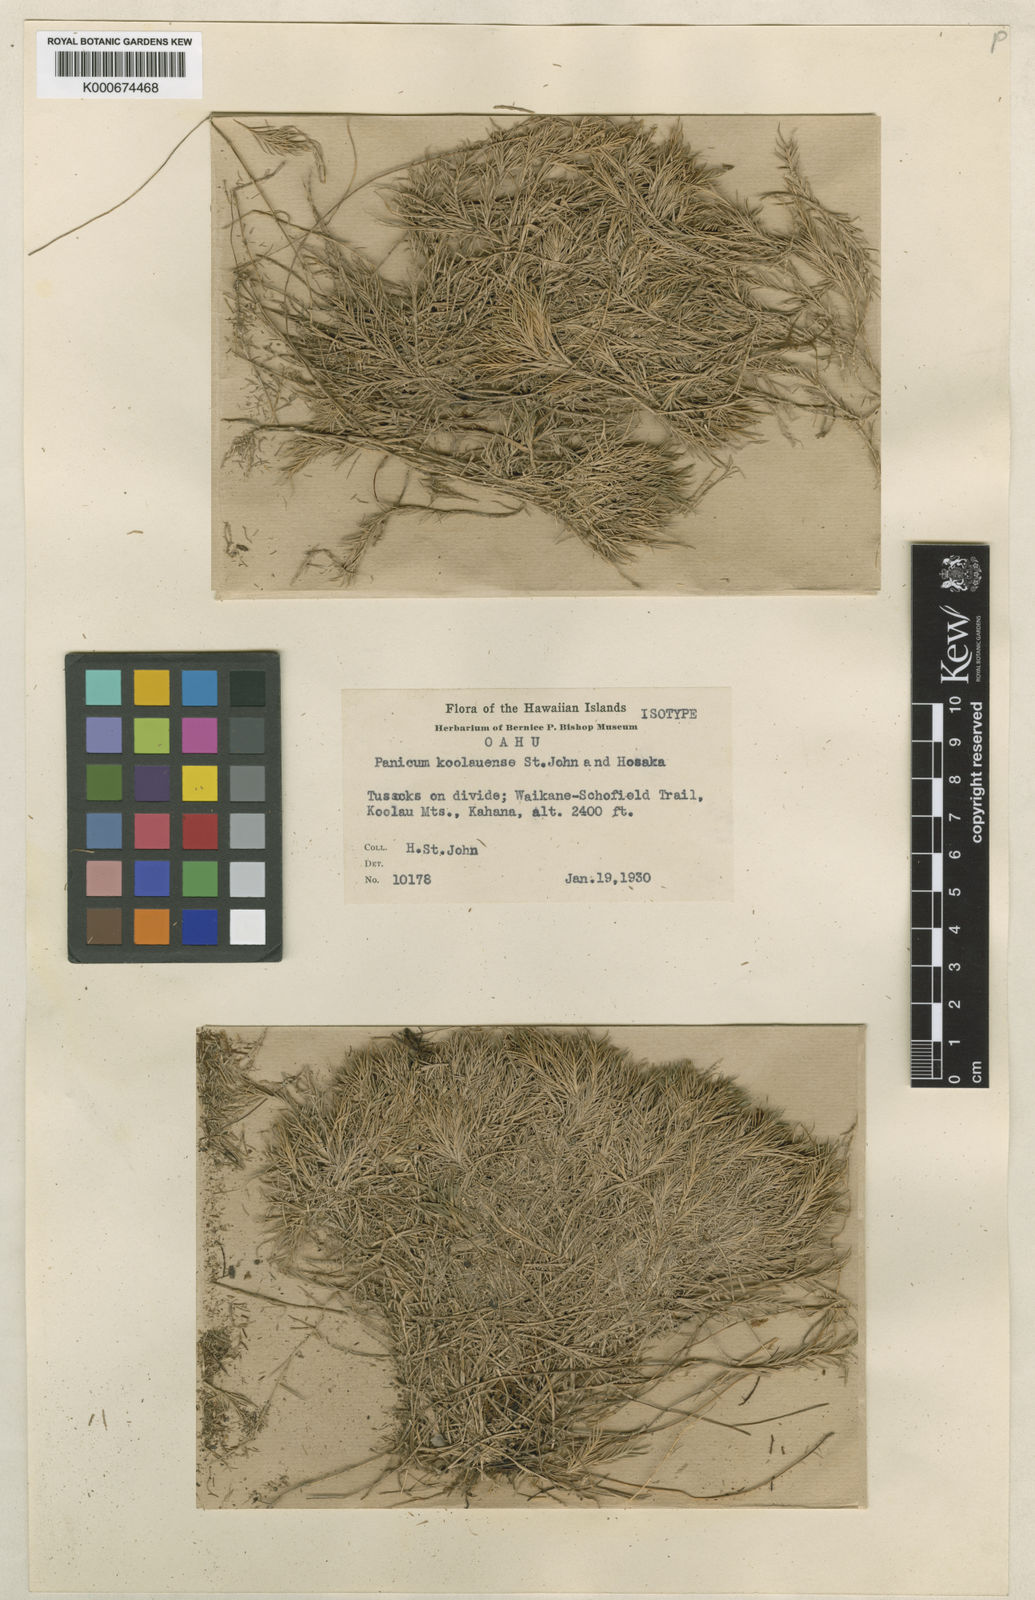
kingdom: Plantae
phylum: Tracheophyta
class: Liliopsida
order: Poales
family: Poaceae
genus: Dichanthelium
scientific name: Dichanthelium koolauense
